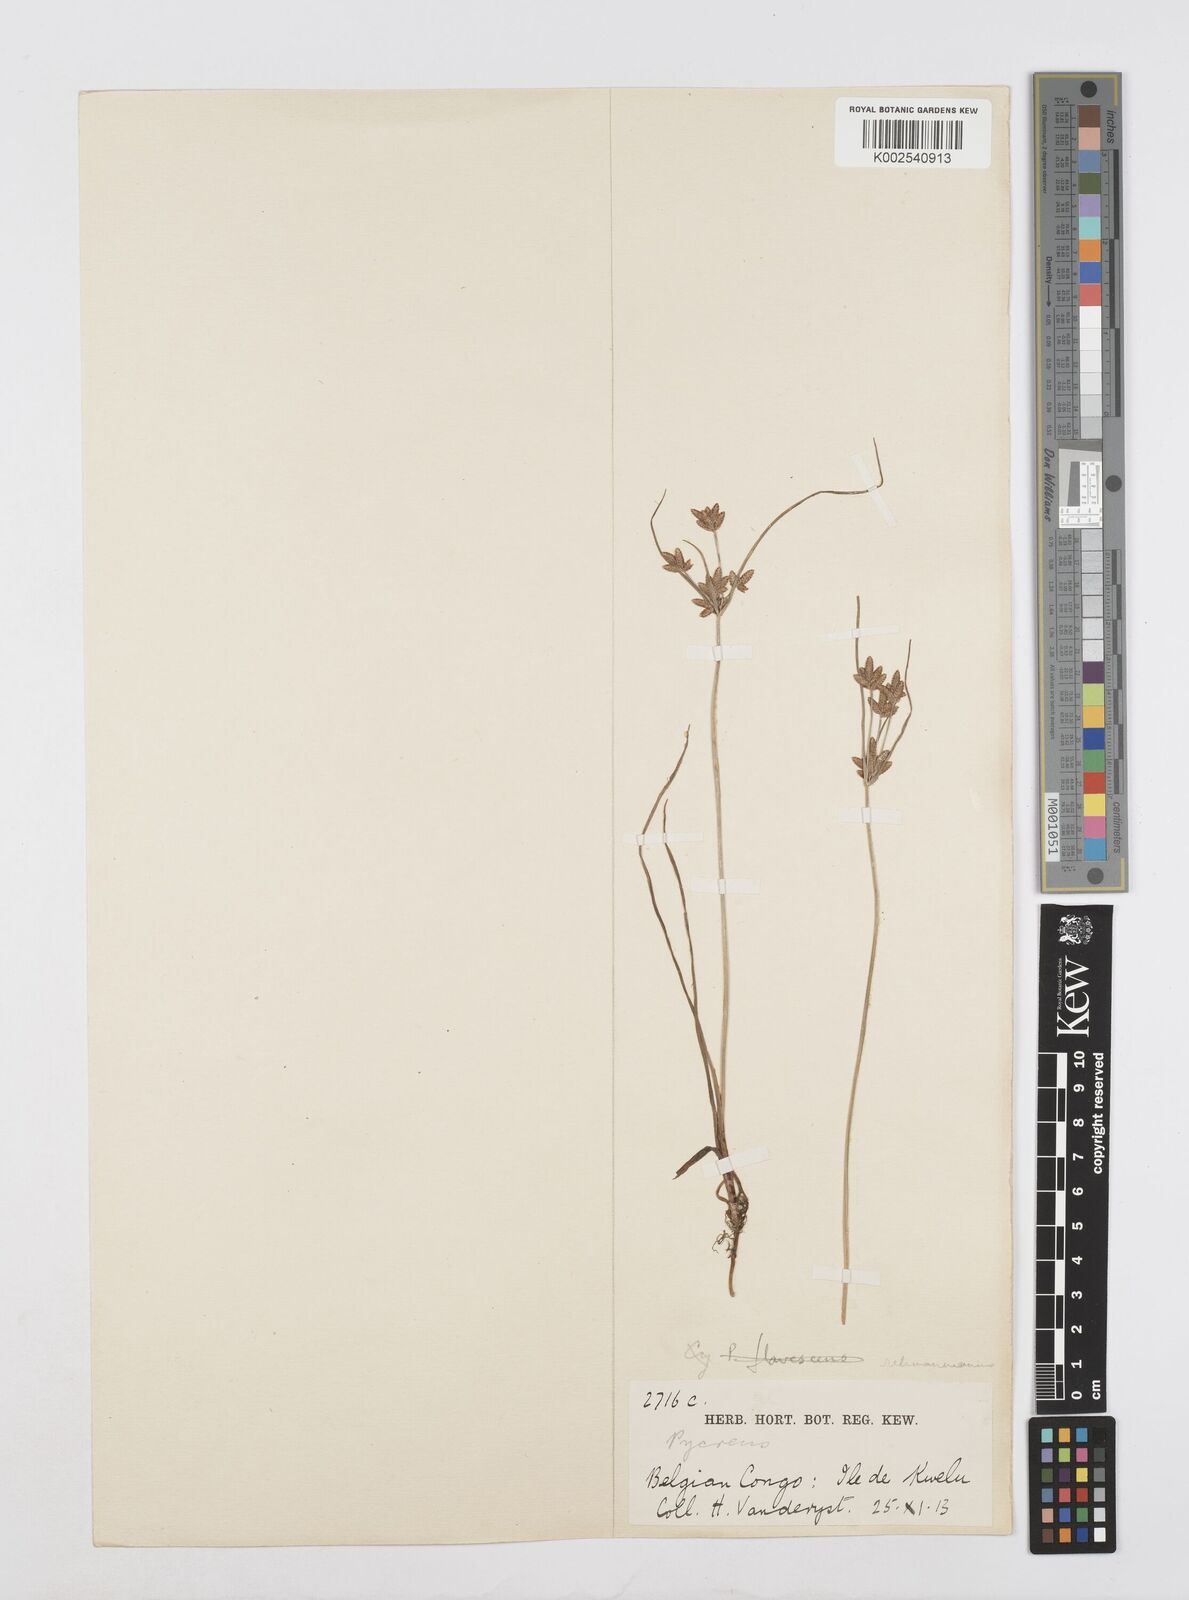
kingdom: Plantae
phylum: Tracheophyta
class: Liliopsida
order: Poales
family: Cyperaceae
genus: Cyperus
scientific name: Cyperus lipopygmaeus
